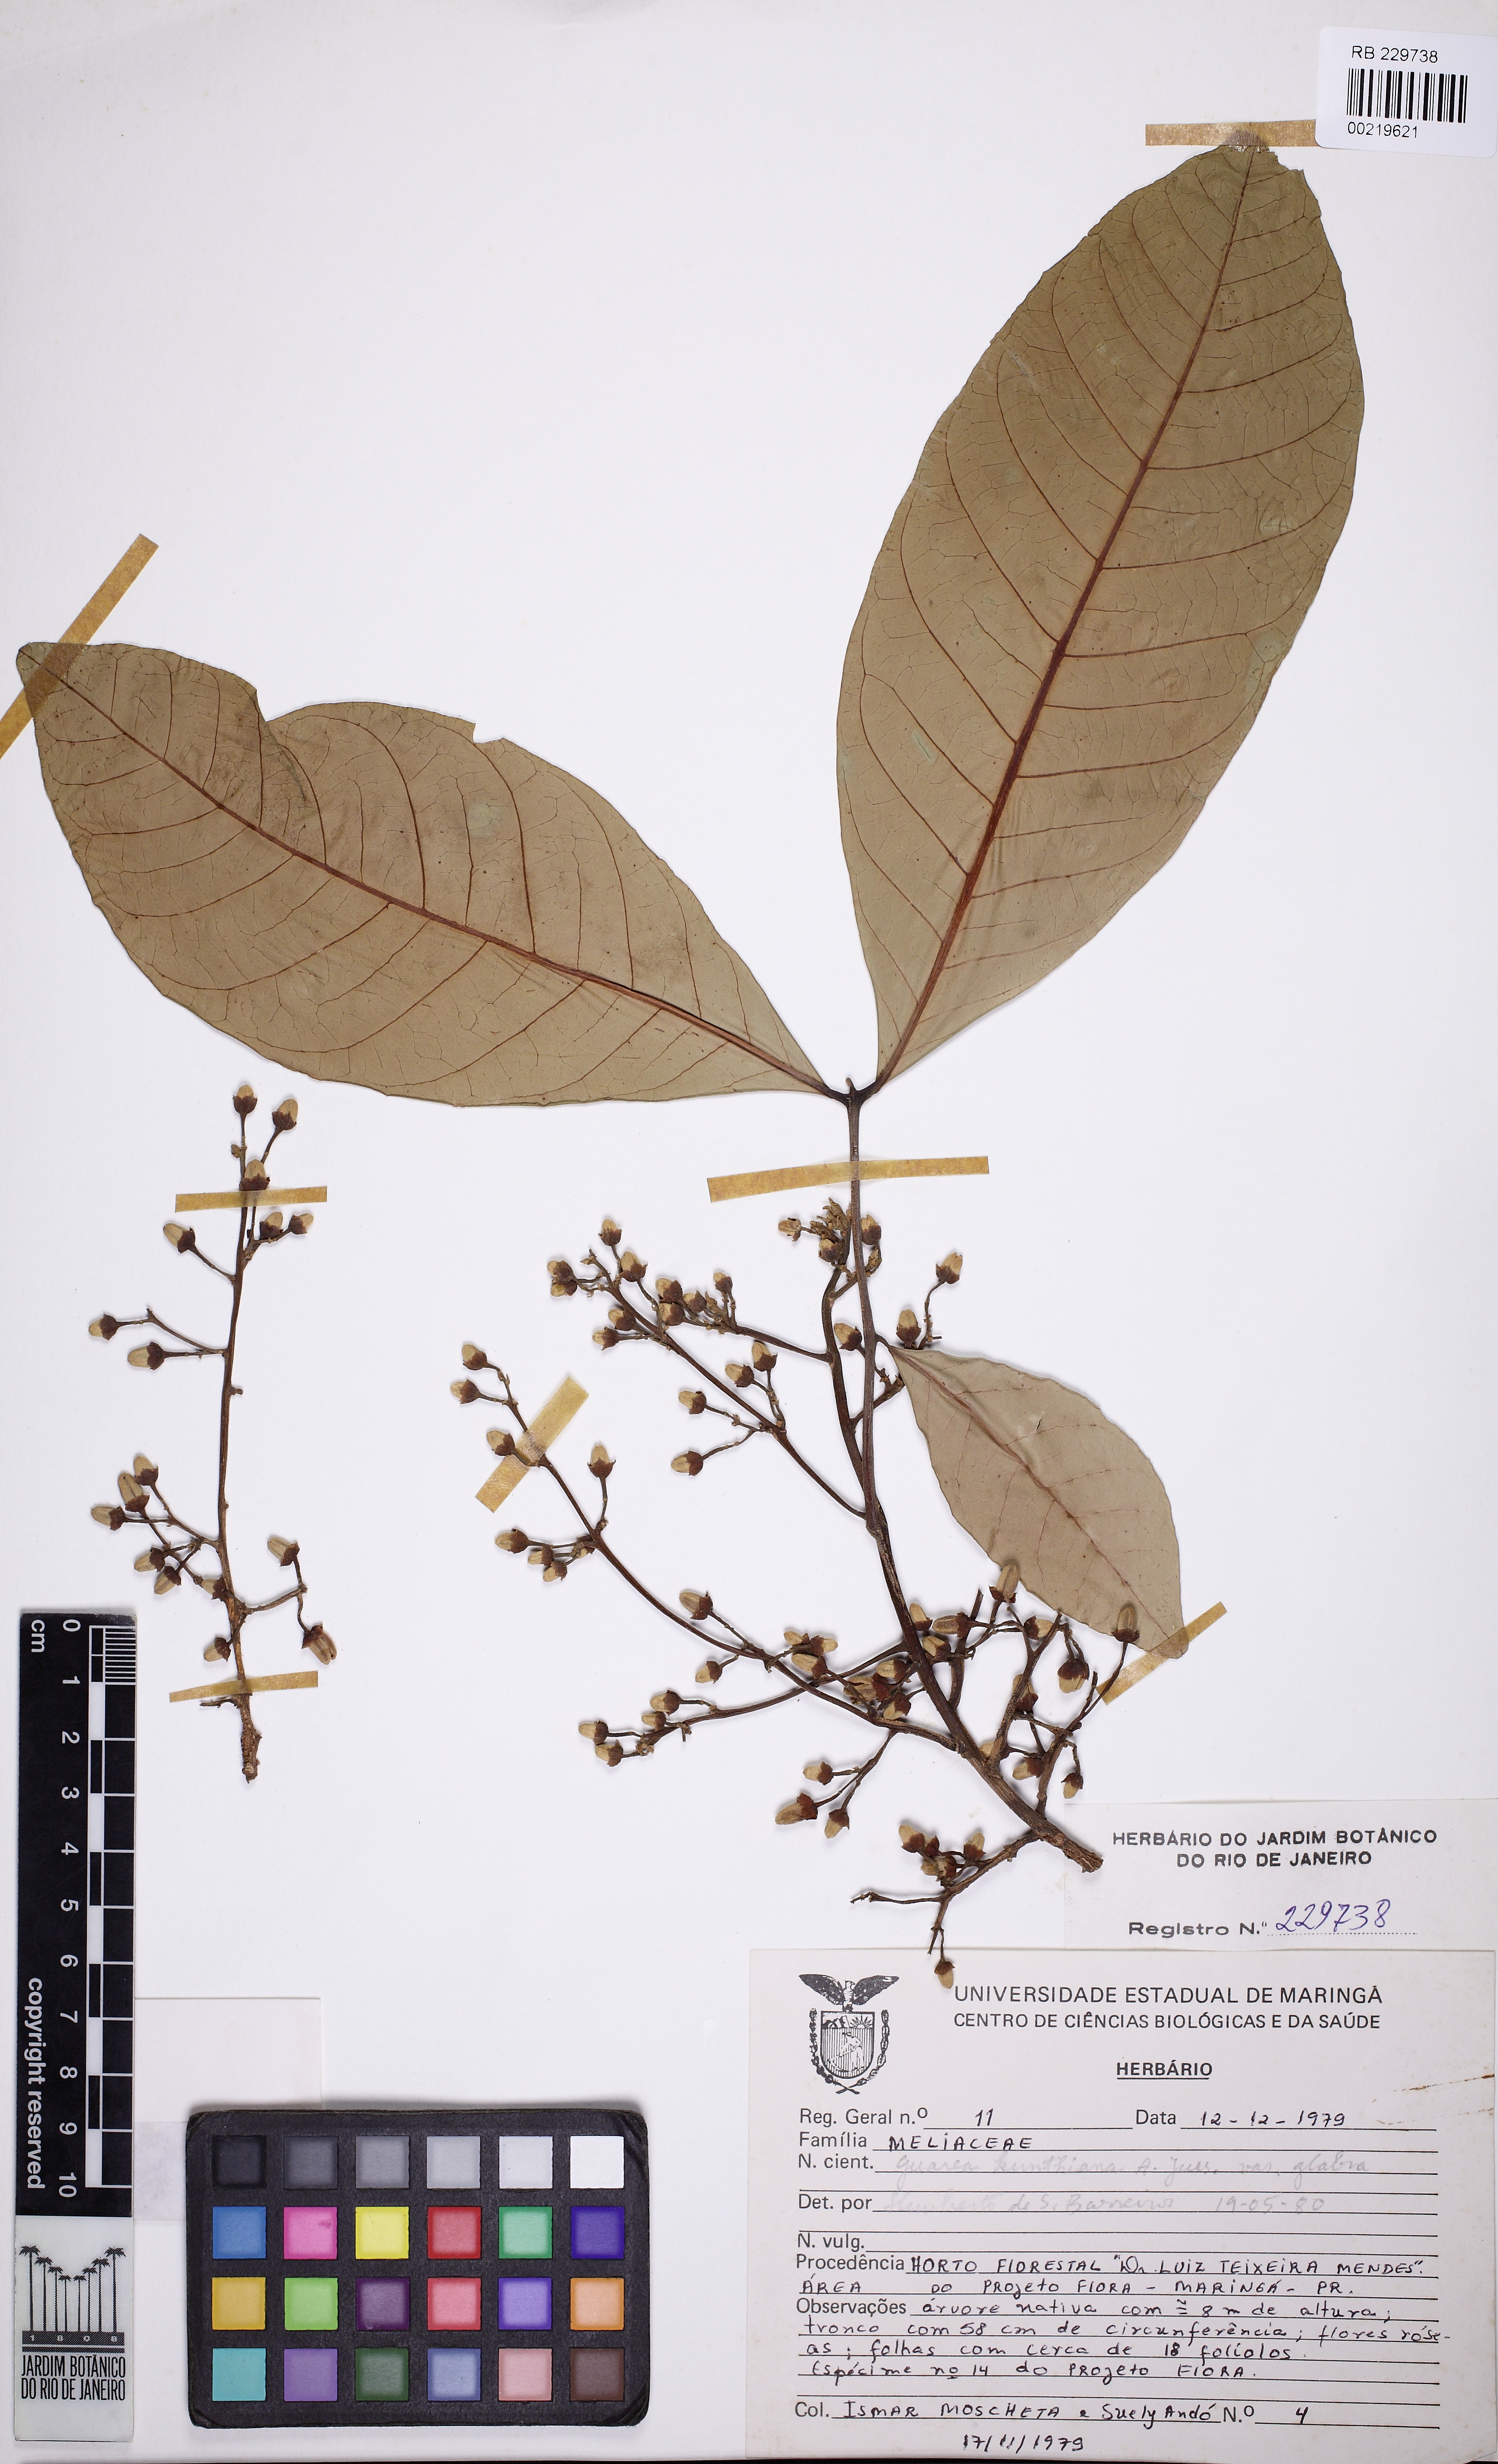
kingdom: Plantae
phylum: Tracheophyta
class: Magnoliopsida
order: Sapindales
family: Meliaceae
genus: Guarea
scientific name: Guarea kunthiana
